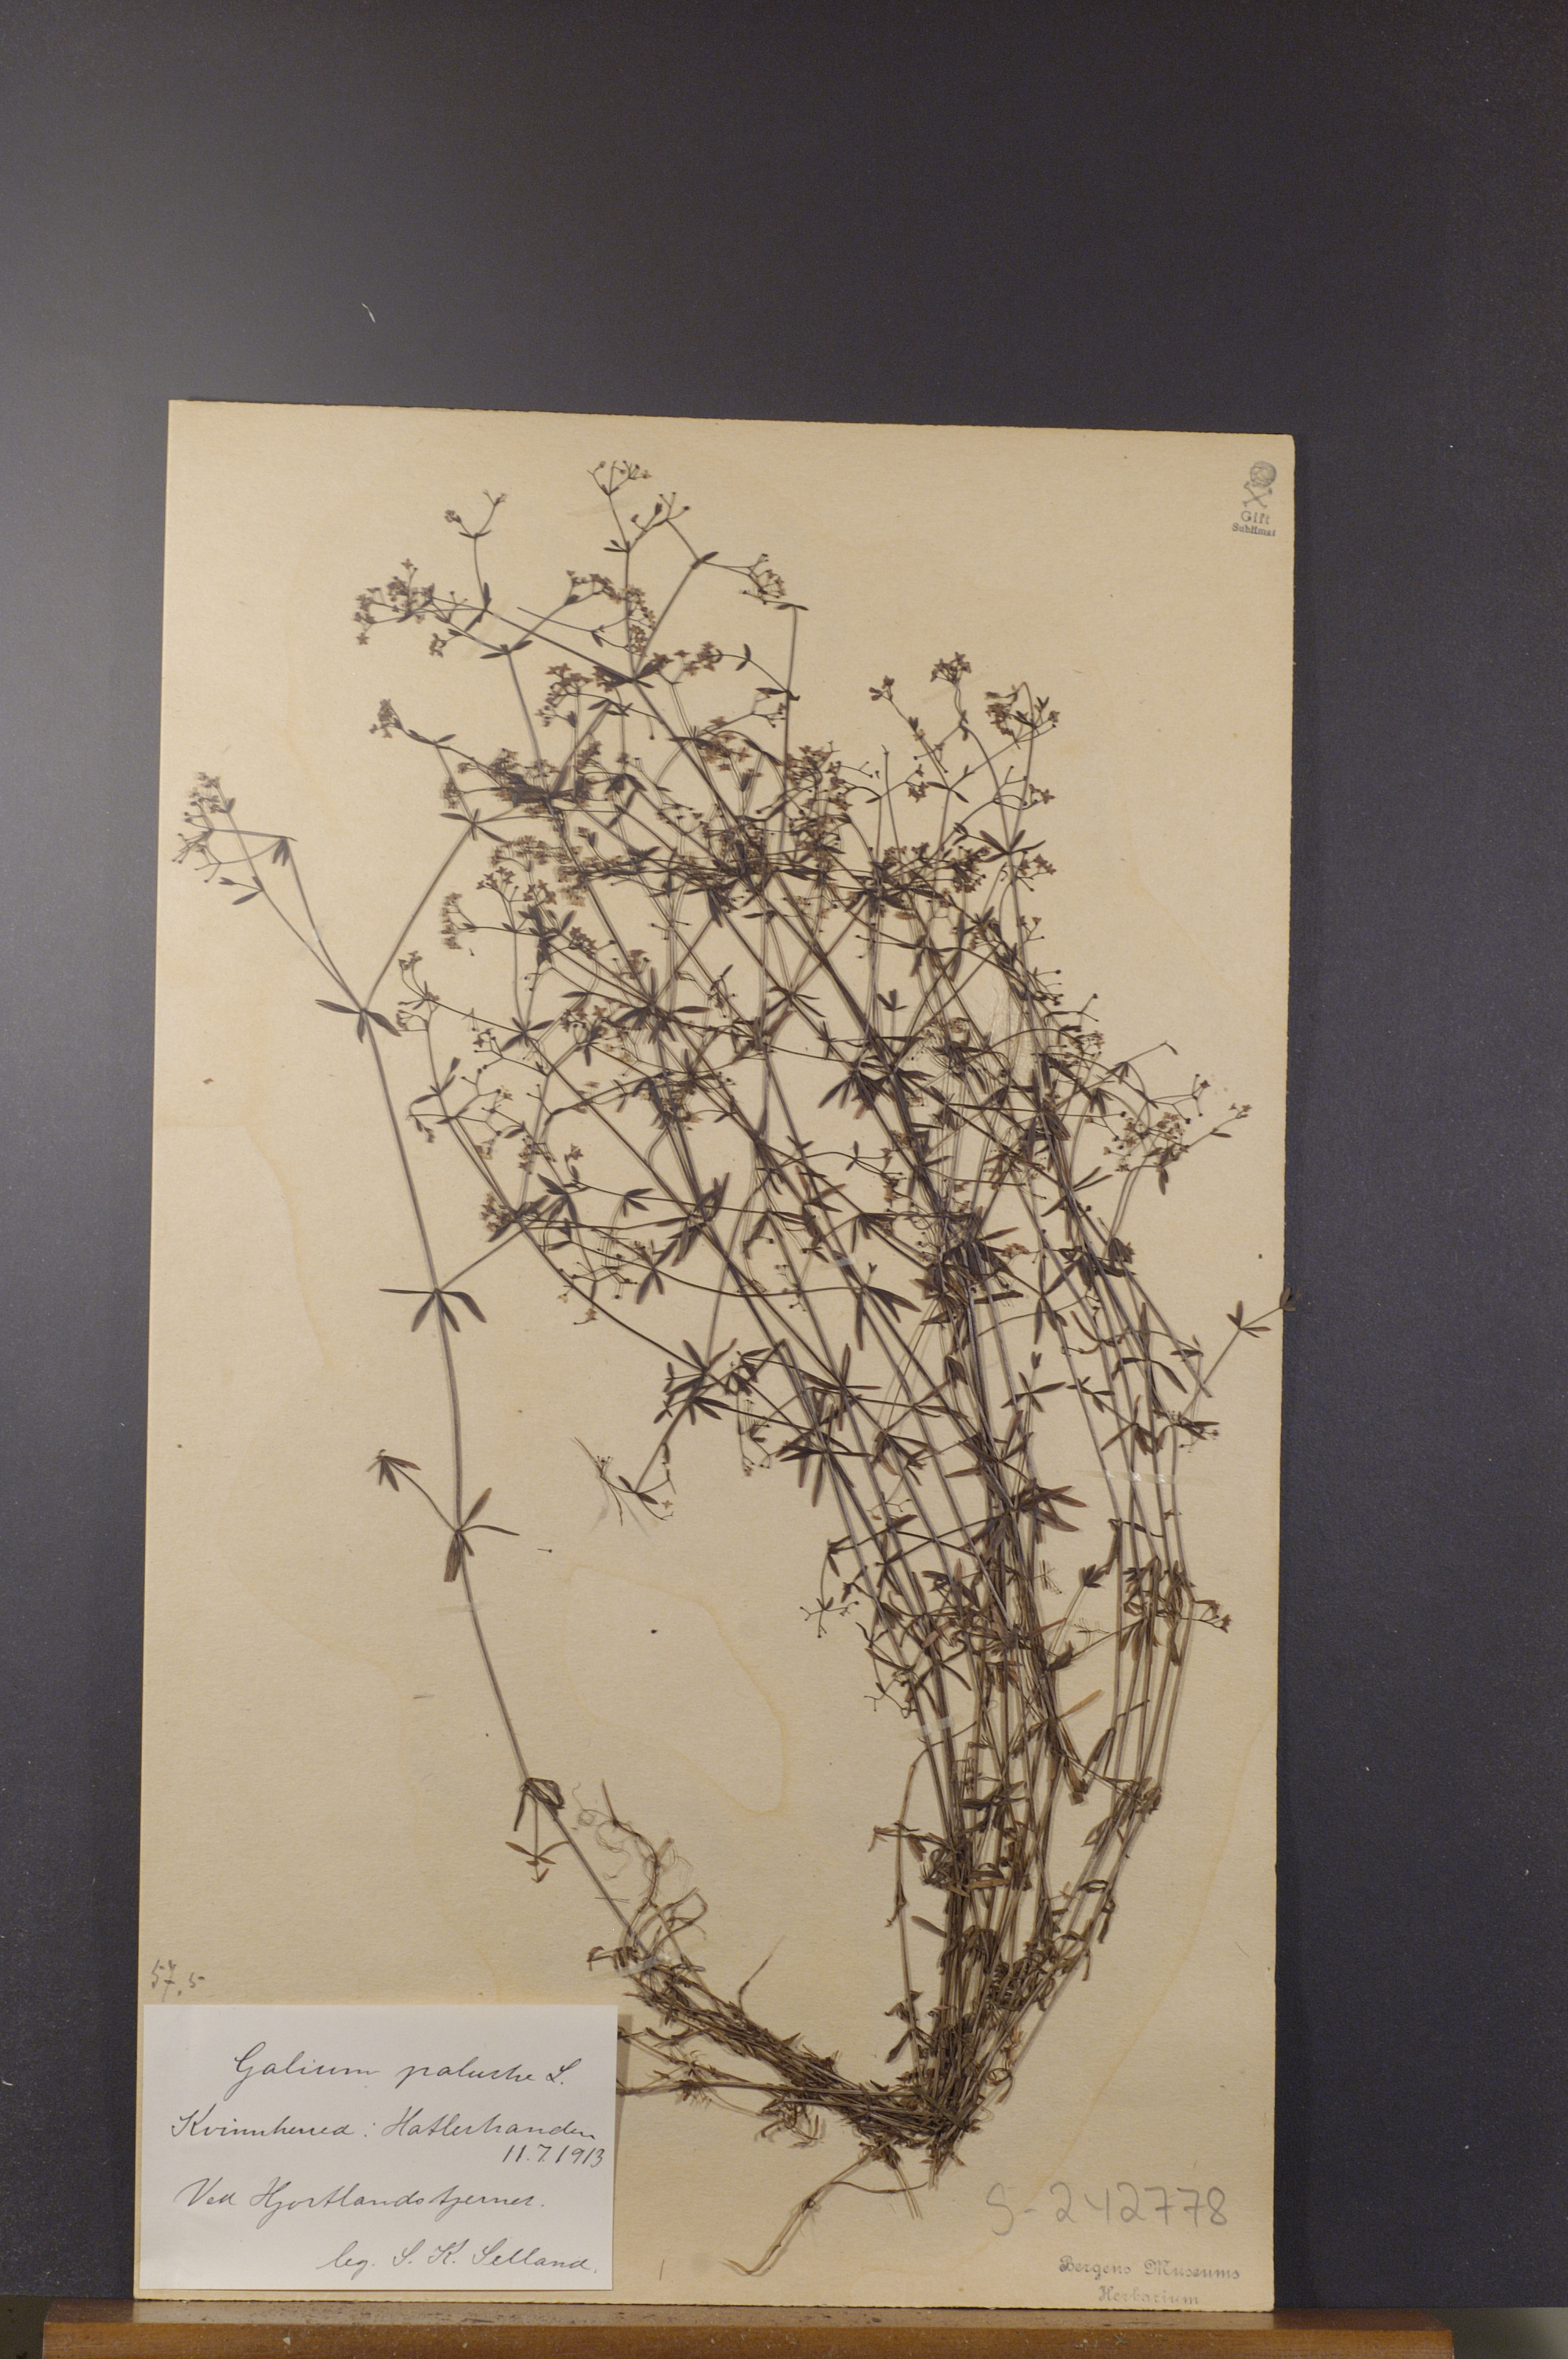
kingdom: Plantae
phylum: Tracheophyta
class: Magnoliopsida
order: Gentianales
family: Rubiaceae
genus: Galium
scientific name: Galium palustre
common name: Common marsh-bedstraw
